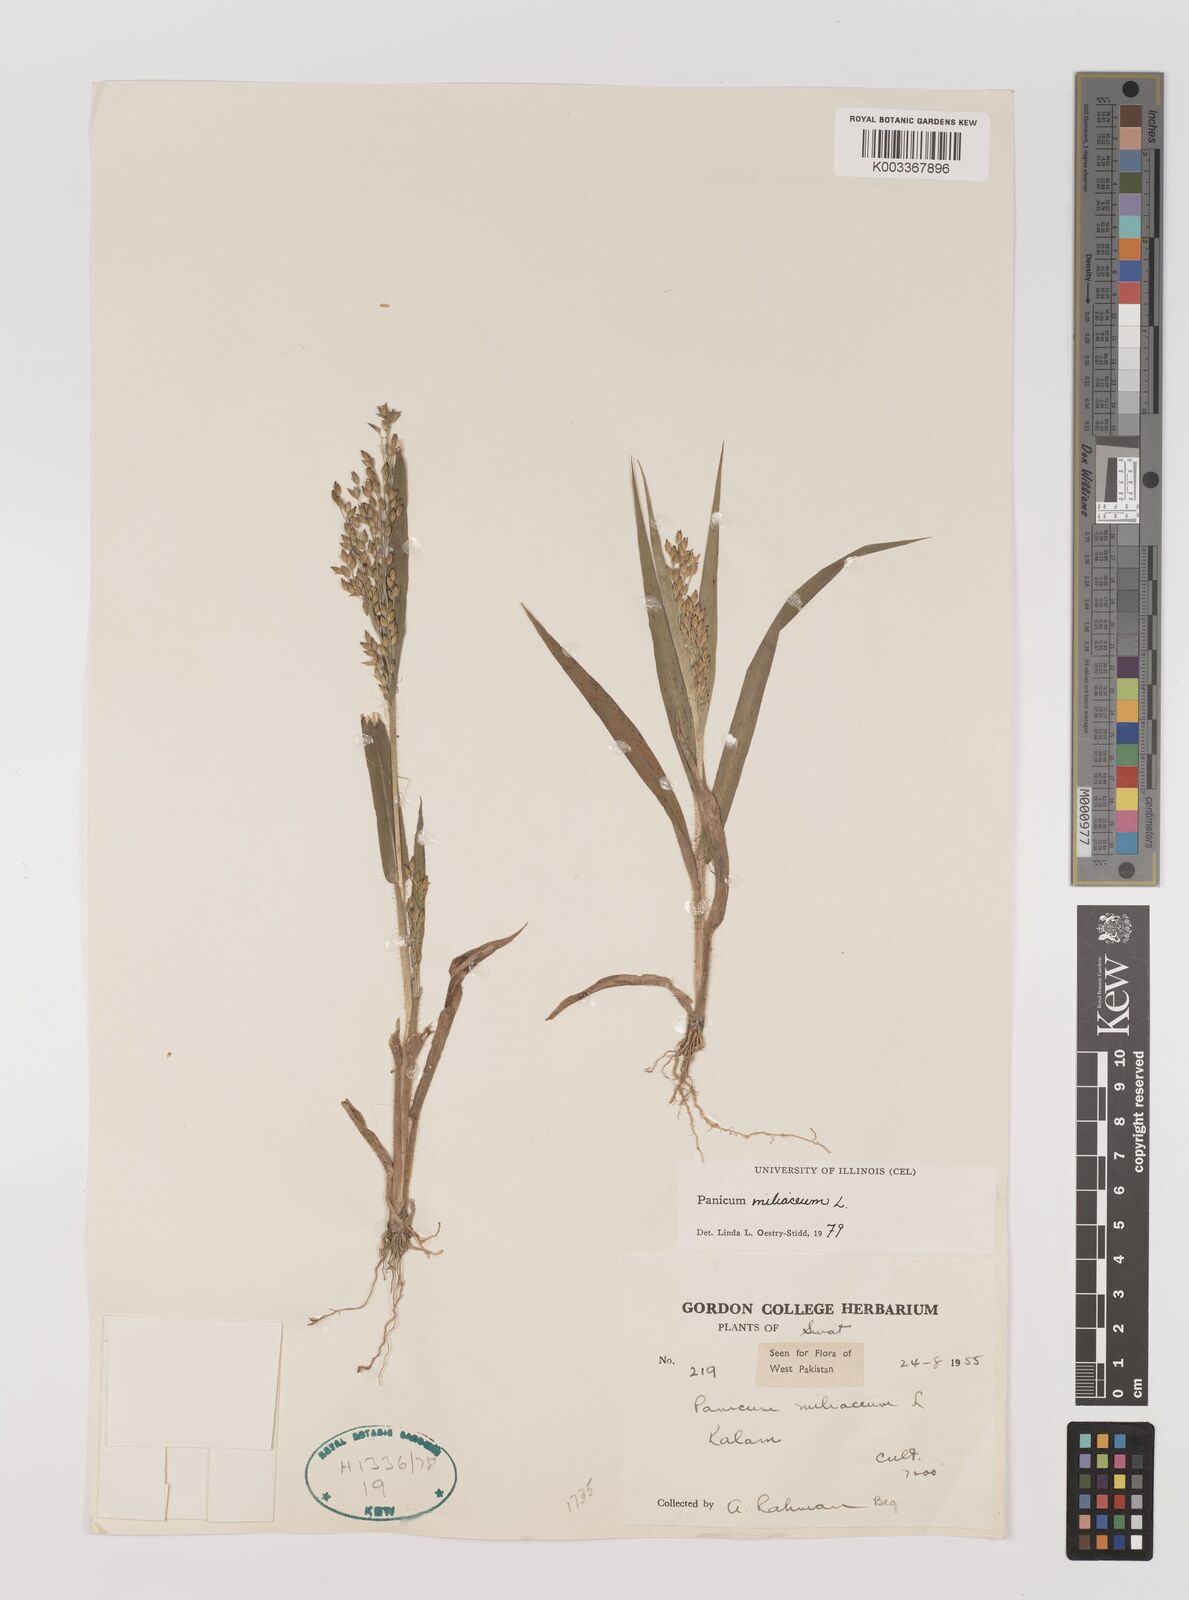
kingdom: Plantae
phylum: Tracheophyta
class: Liliopsida
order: Poales
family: Poaceae
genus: Panicum
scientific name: Panicum miliaceum
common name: Common millet
